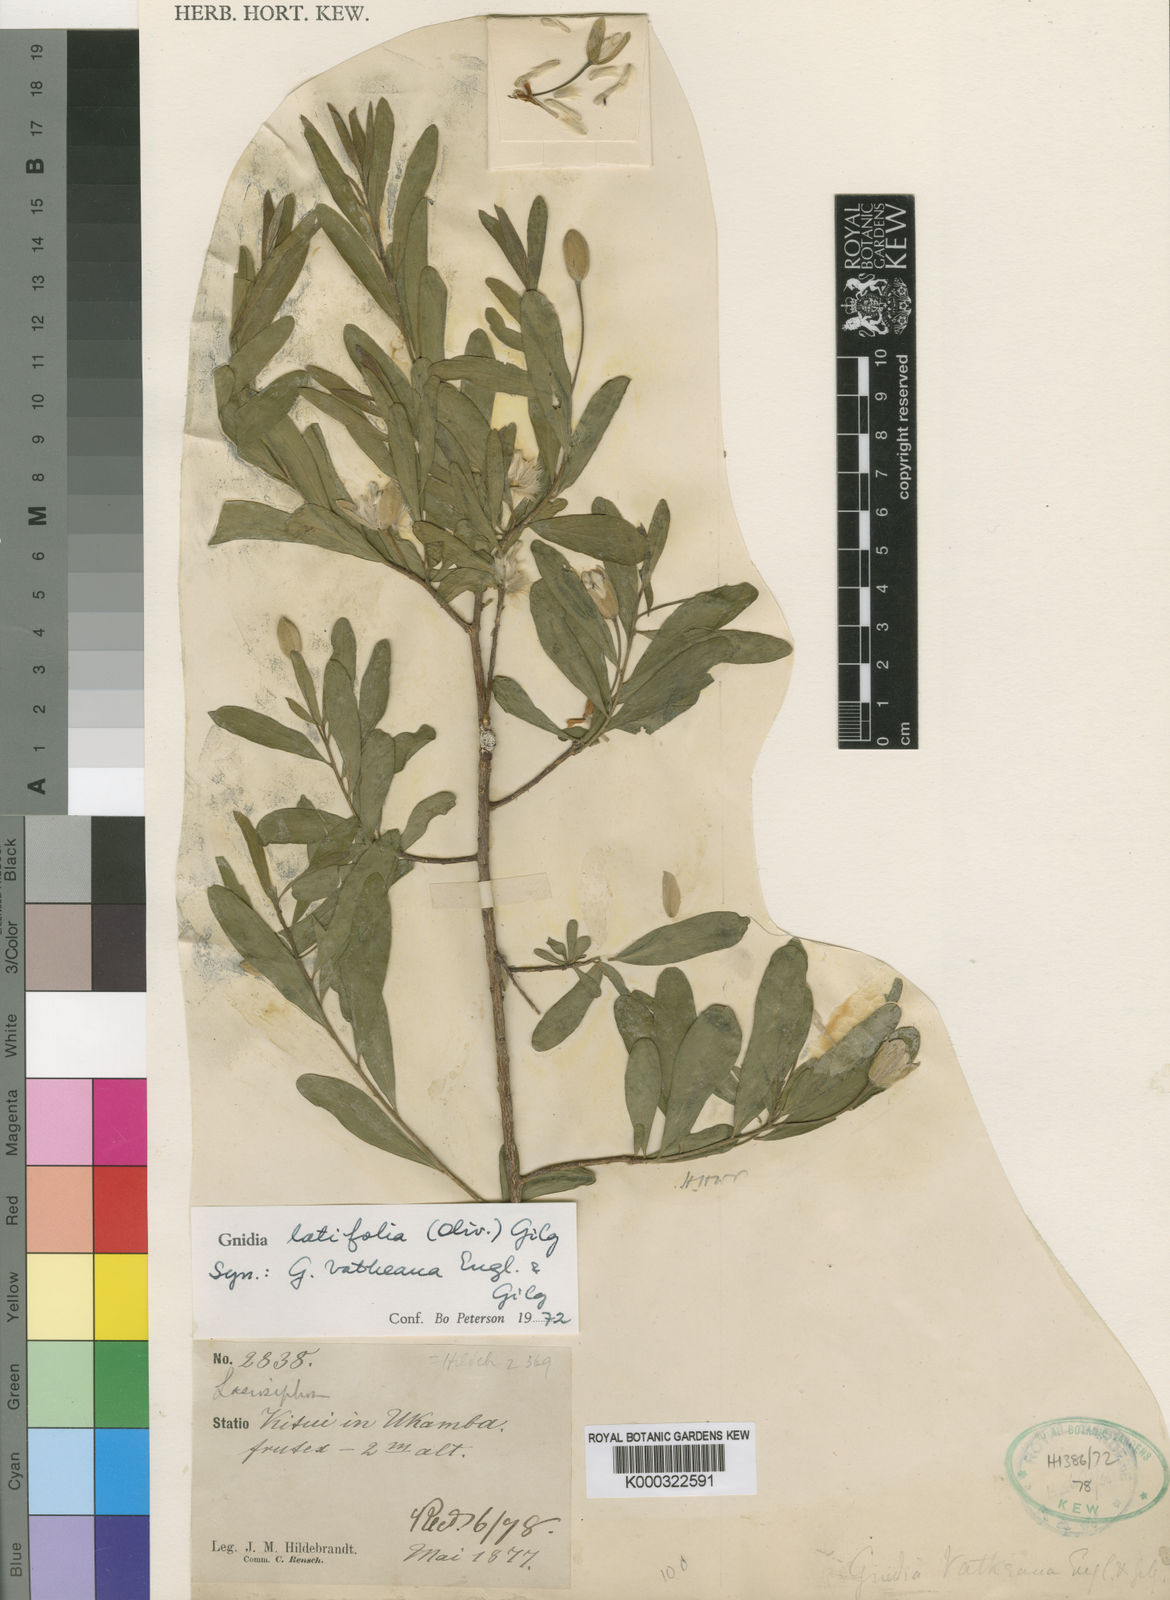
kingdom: Plantae
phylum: Tracheophyta
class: Magnoliopsida
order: Malvales
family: Thymelaeaceae
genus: Gnidia
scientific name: Gnidia latifolia
